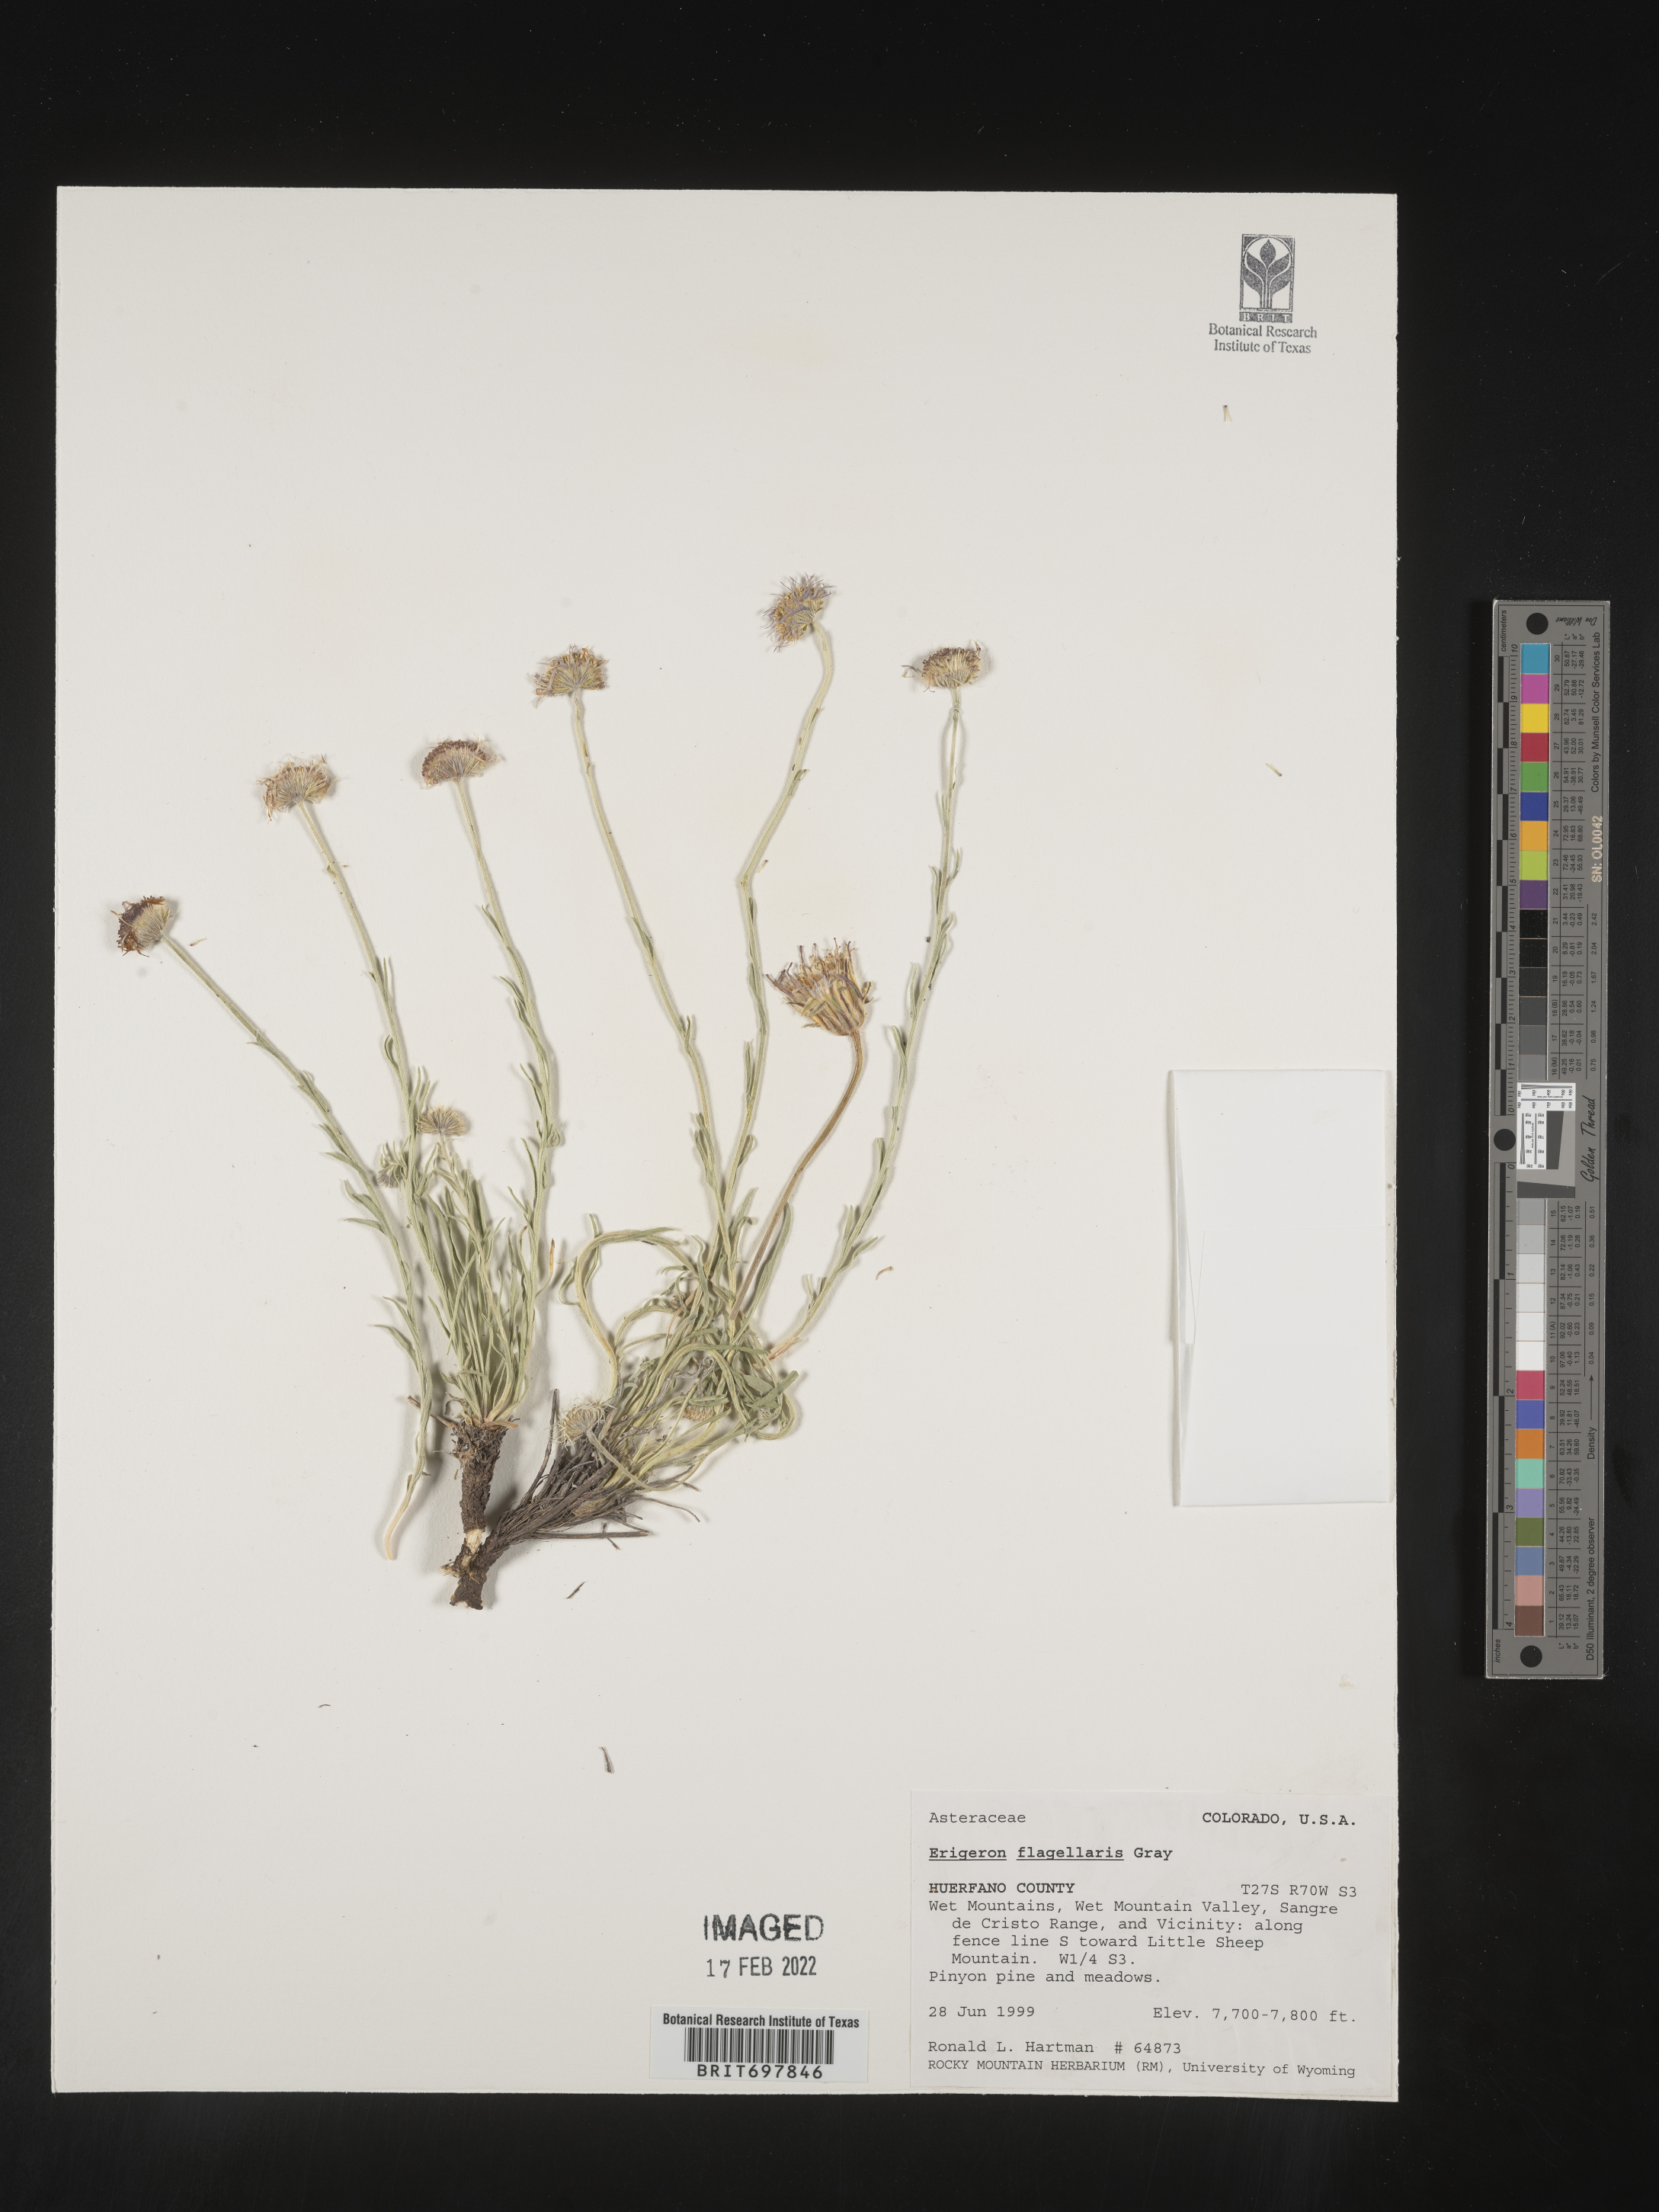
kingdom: Plantae
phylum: Tracheophyta
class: Magnoliopsida
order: Asterales
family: Asteraceae
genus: Erigeron
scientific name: Erigeron flagellaris
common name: Running fleabane
